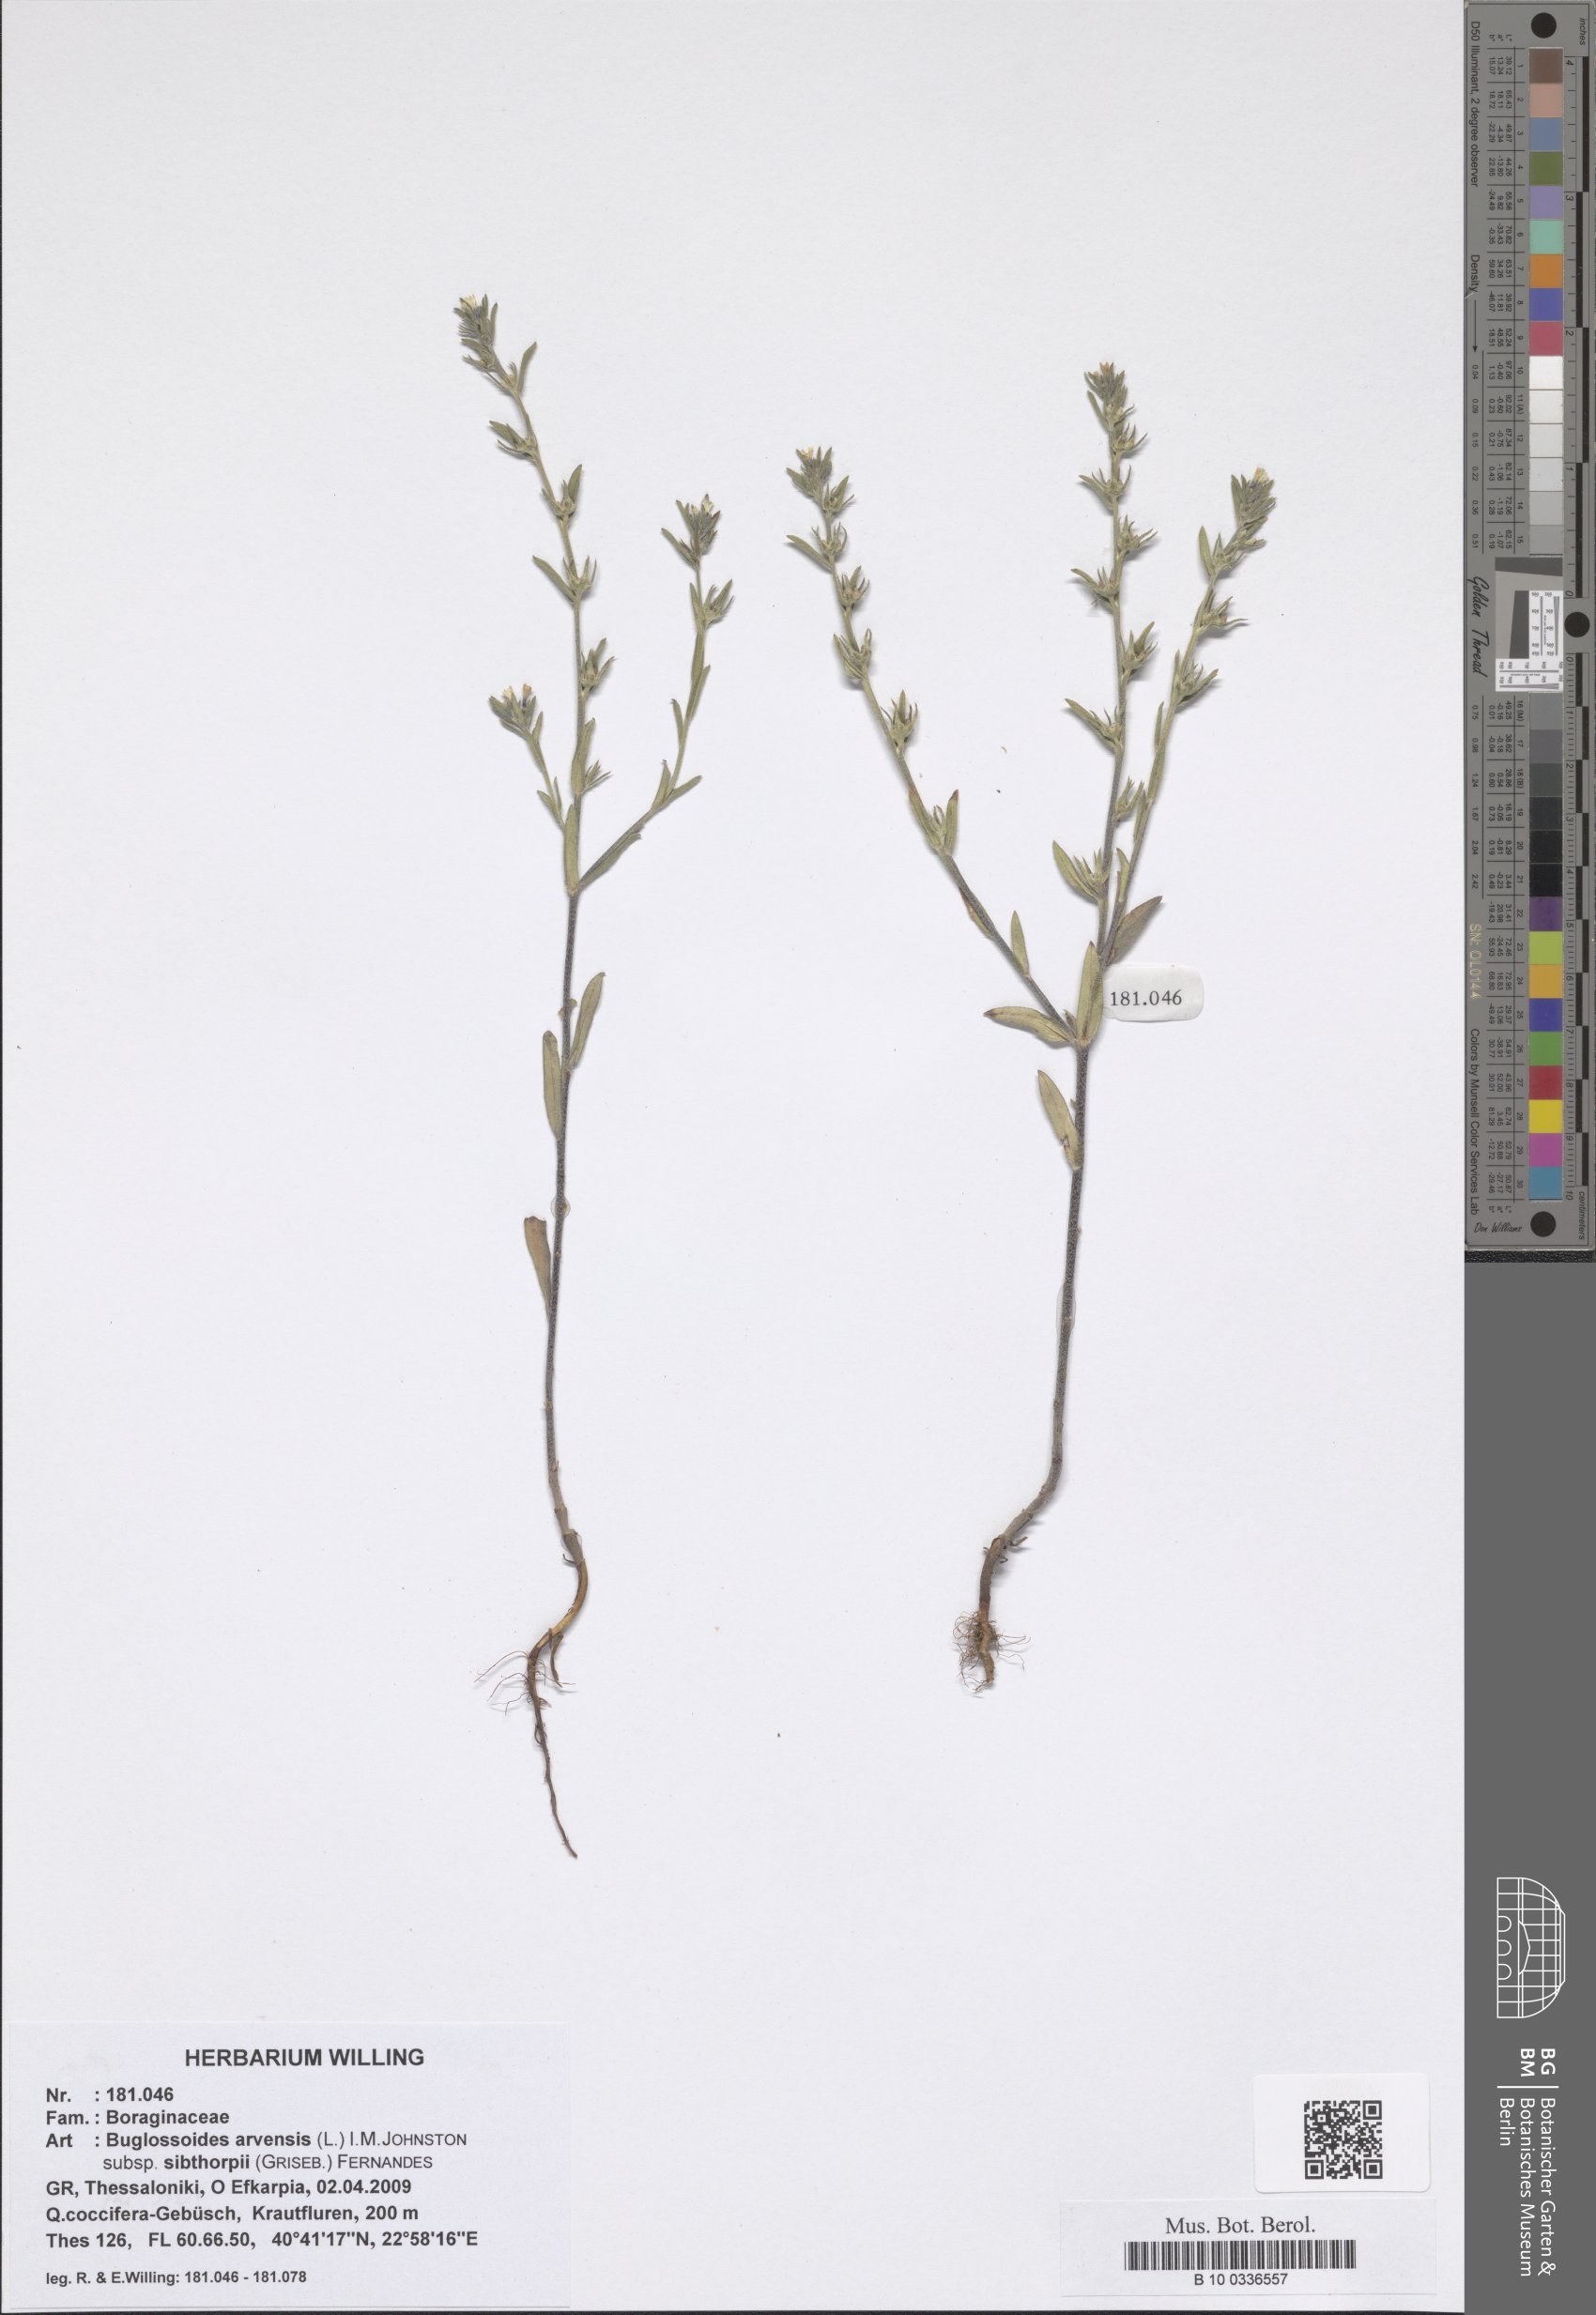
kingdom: Plantae
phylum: Tracheophyta
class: Magnoliopsida
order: Boraginales
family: Boraginaceae
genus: Buglossoides
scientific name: Buglossoides arvensis
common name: Corn gromwell
